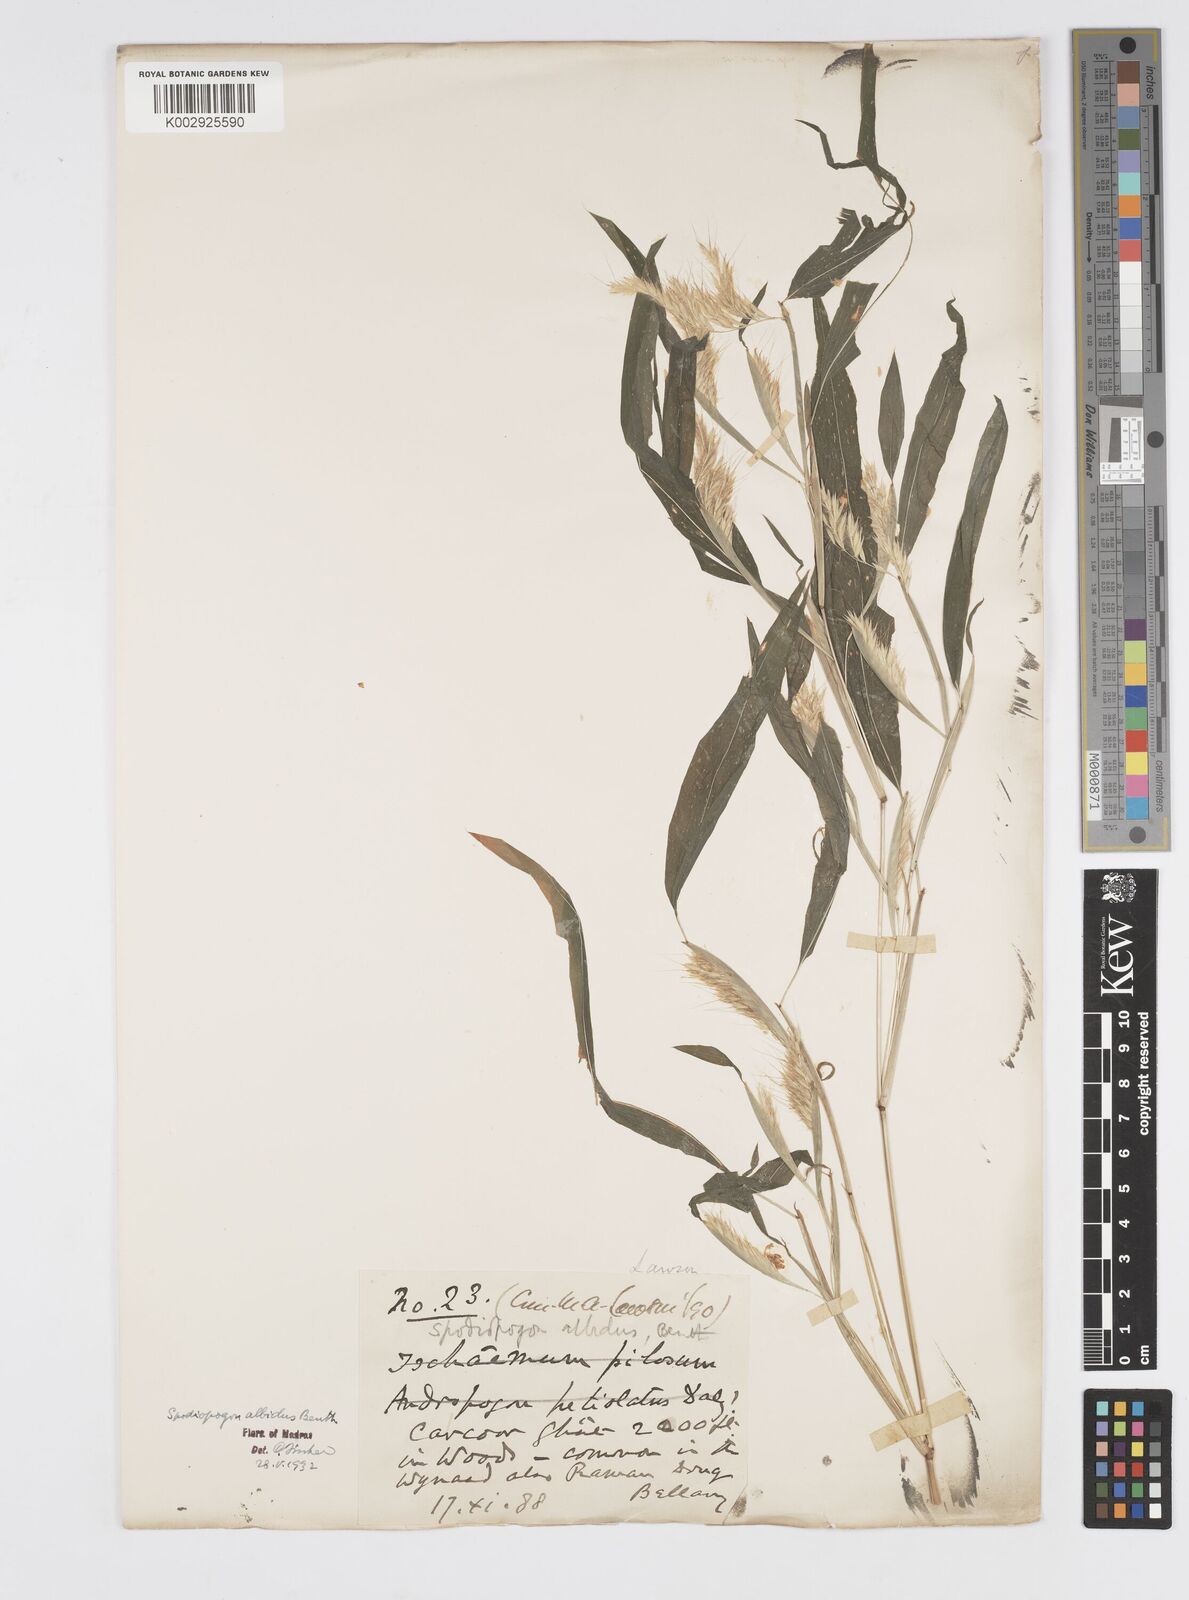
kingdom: Plantae
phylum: Tracheophyta
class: Liliopsida
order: Poales
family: Poaceae
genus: Spodiopogon
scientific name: Spodiopogon rhizophorus
